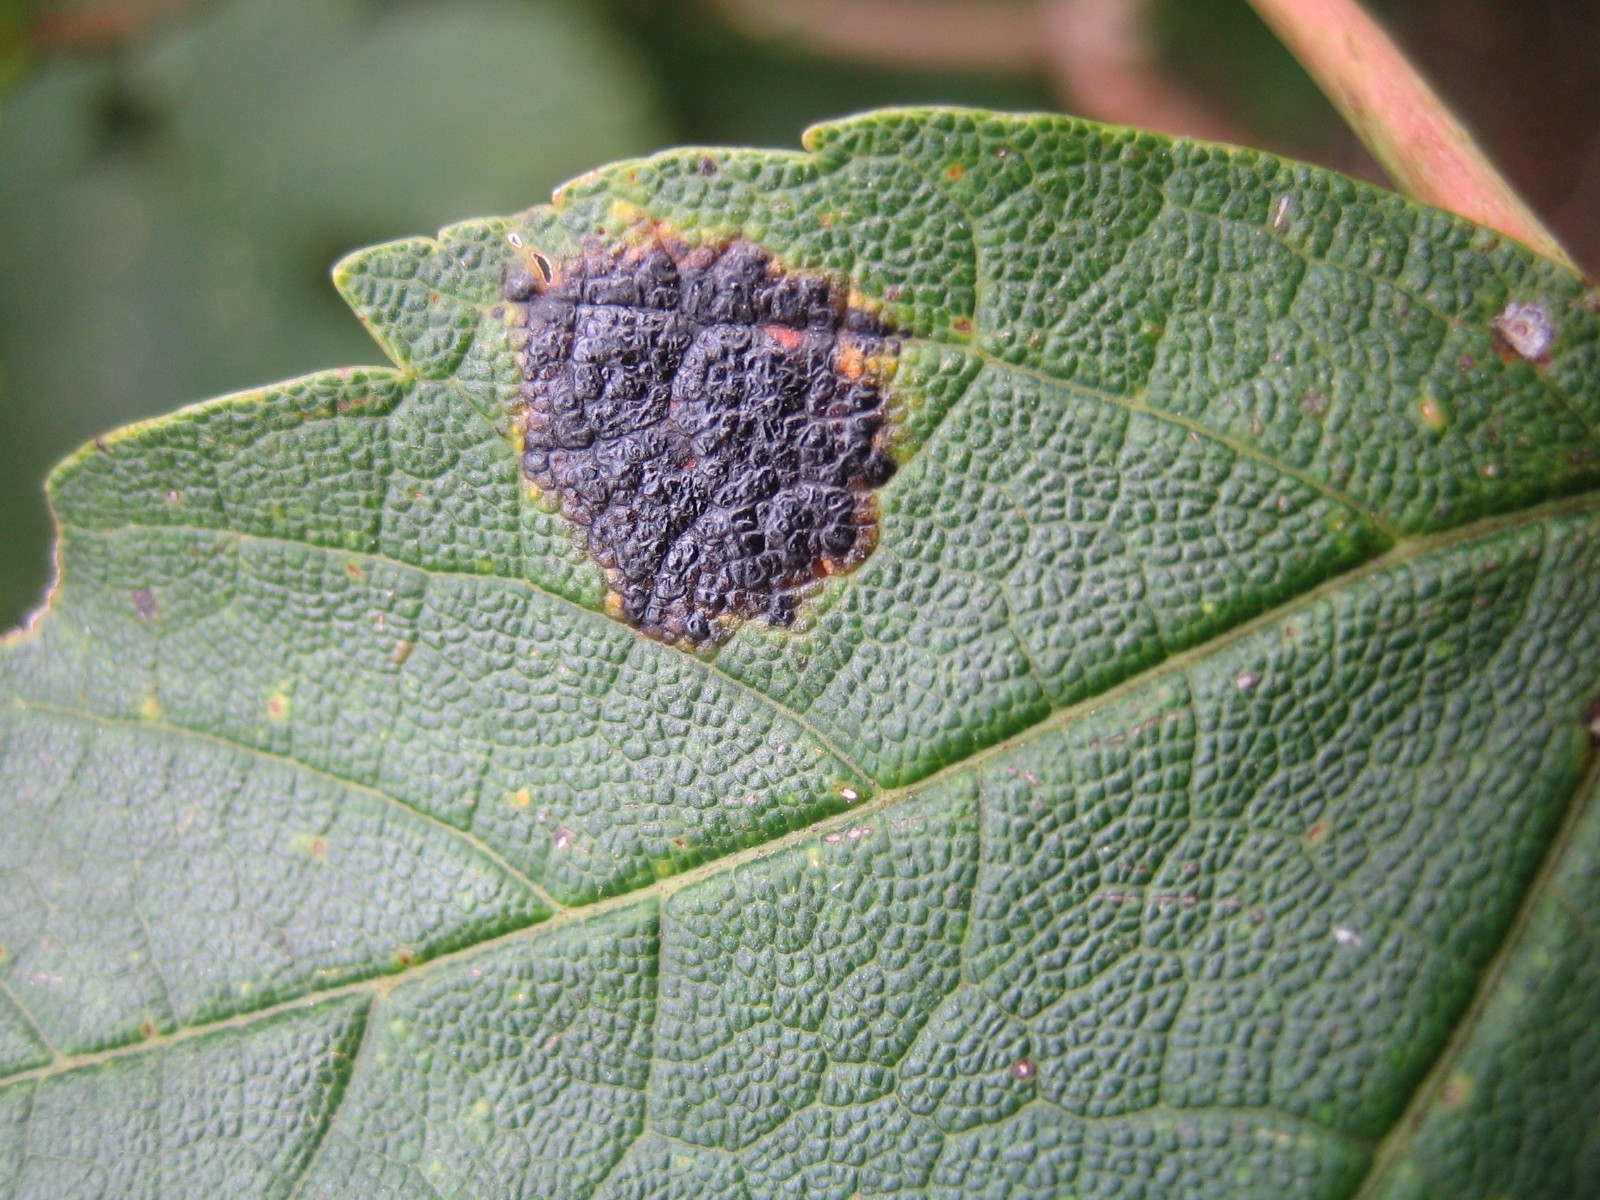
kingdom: Fungi
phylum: Ascomycota
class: Leotiomycetes
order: Rhytismatales
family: Rhytismataceae
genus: Rhytisma
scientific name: Rhytisma acerinum
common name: ahorn-rynkeplet
